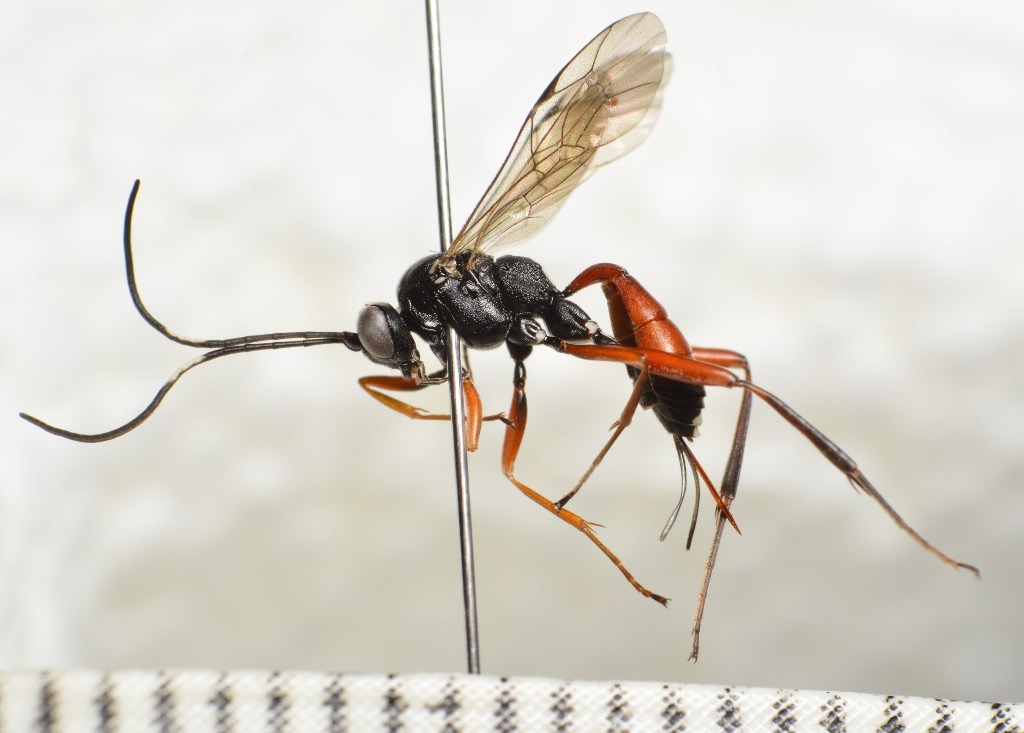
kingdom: Animalia
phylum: Arthropoda
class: Insecta
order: Hymenoptera
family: Ichneumonidae
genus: Hoplocryptus
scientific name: Hoplocryptus murarius
